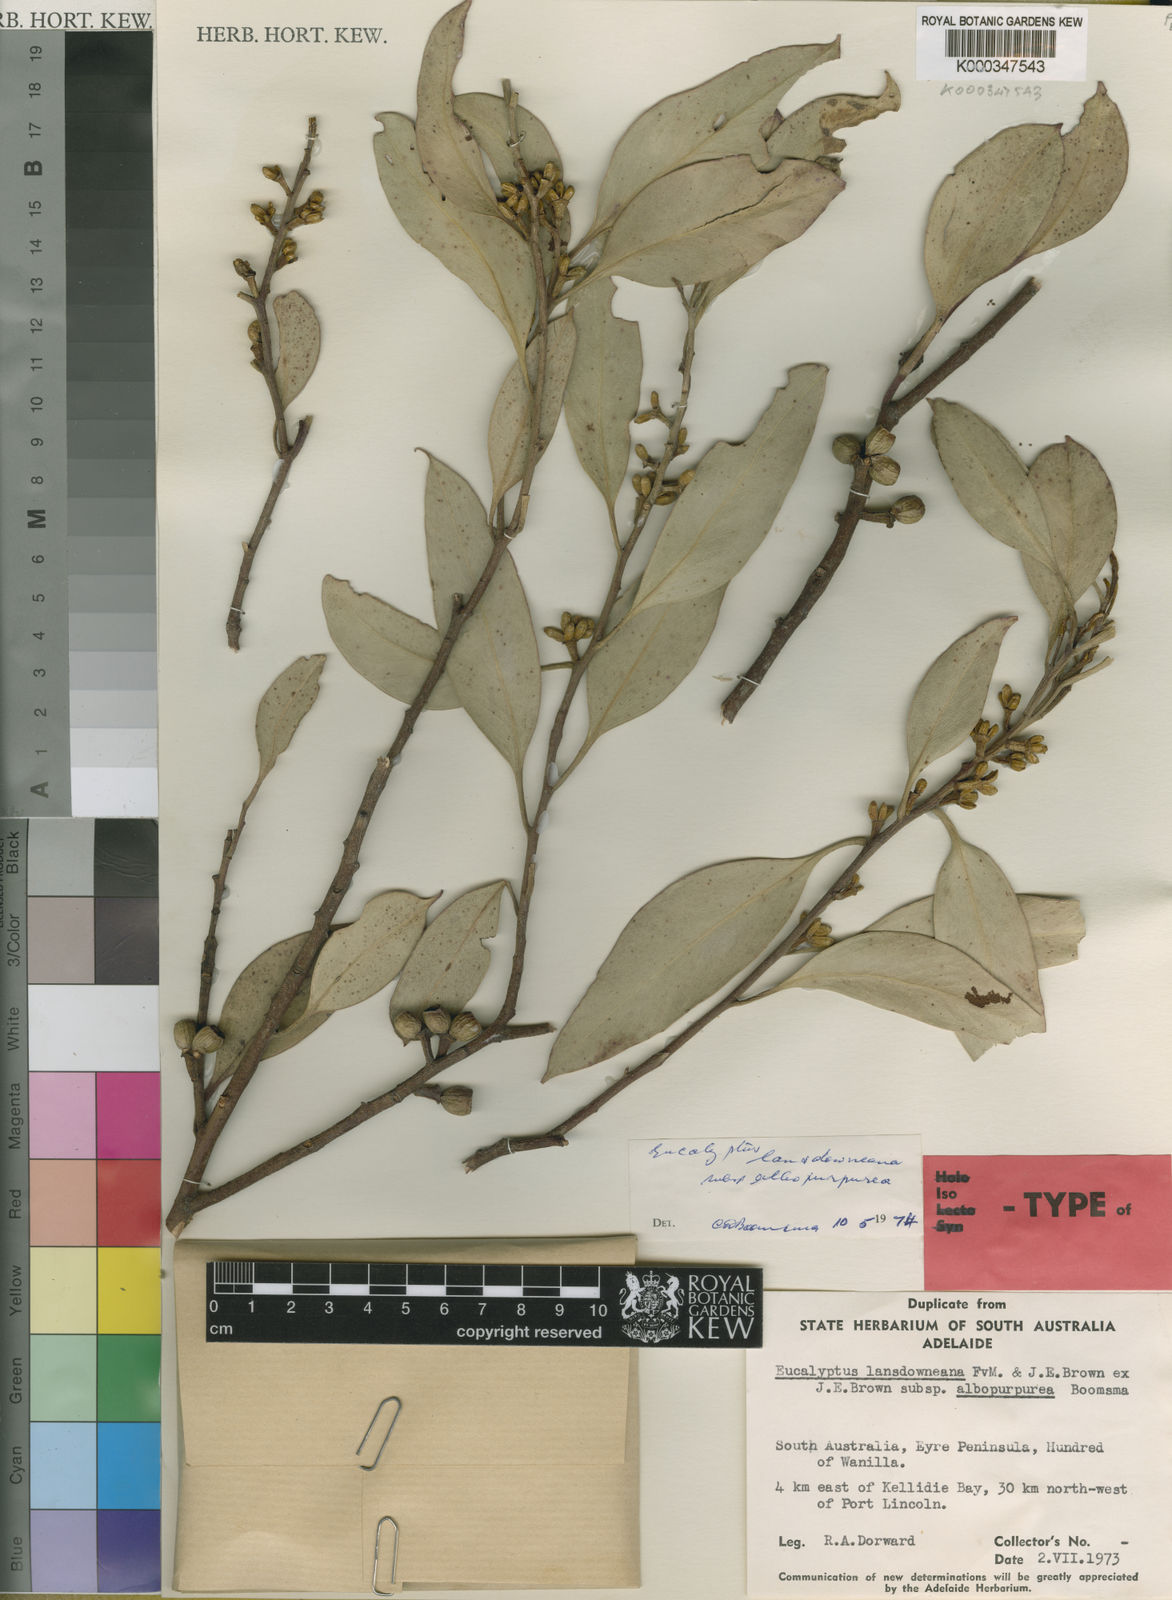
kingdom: Plantae
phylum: Tracheophyta
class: Magnoliopsida
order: Myrtales
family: Myrtaceae
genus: Eucalyptus
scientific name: Eucalyptus albopurpurea
